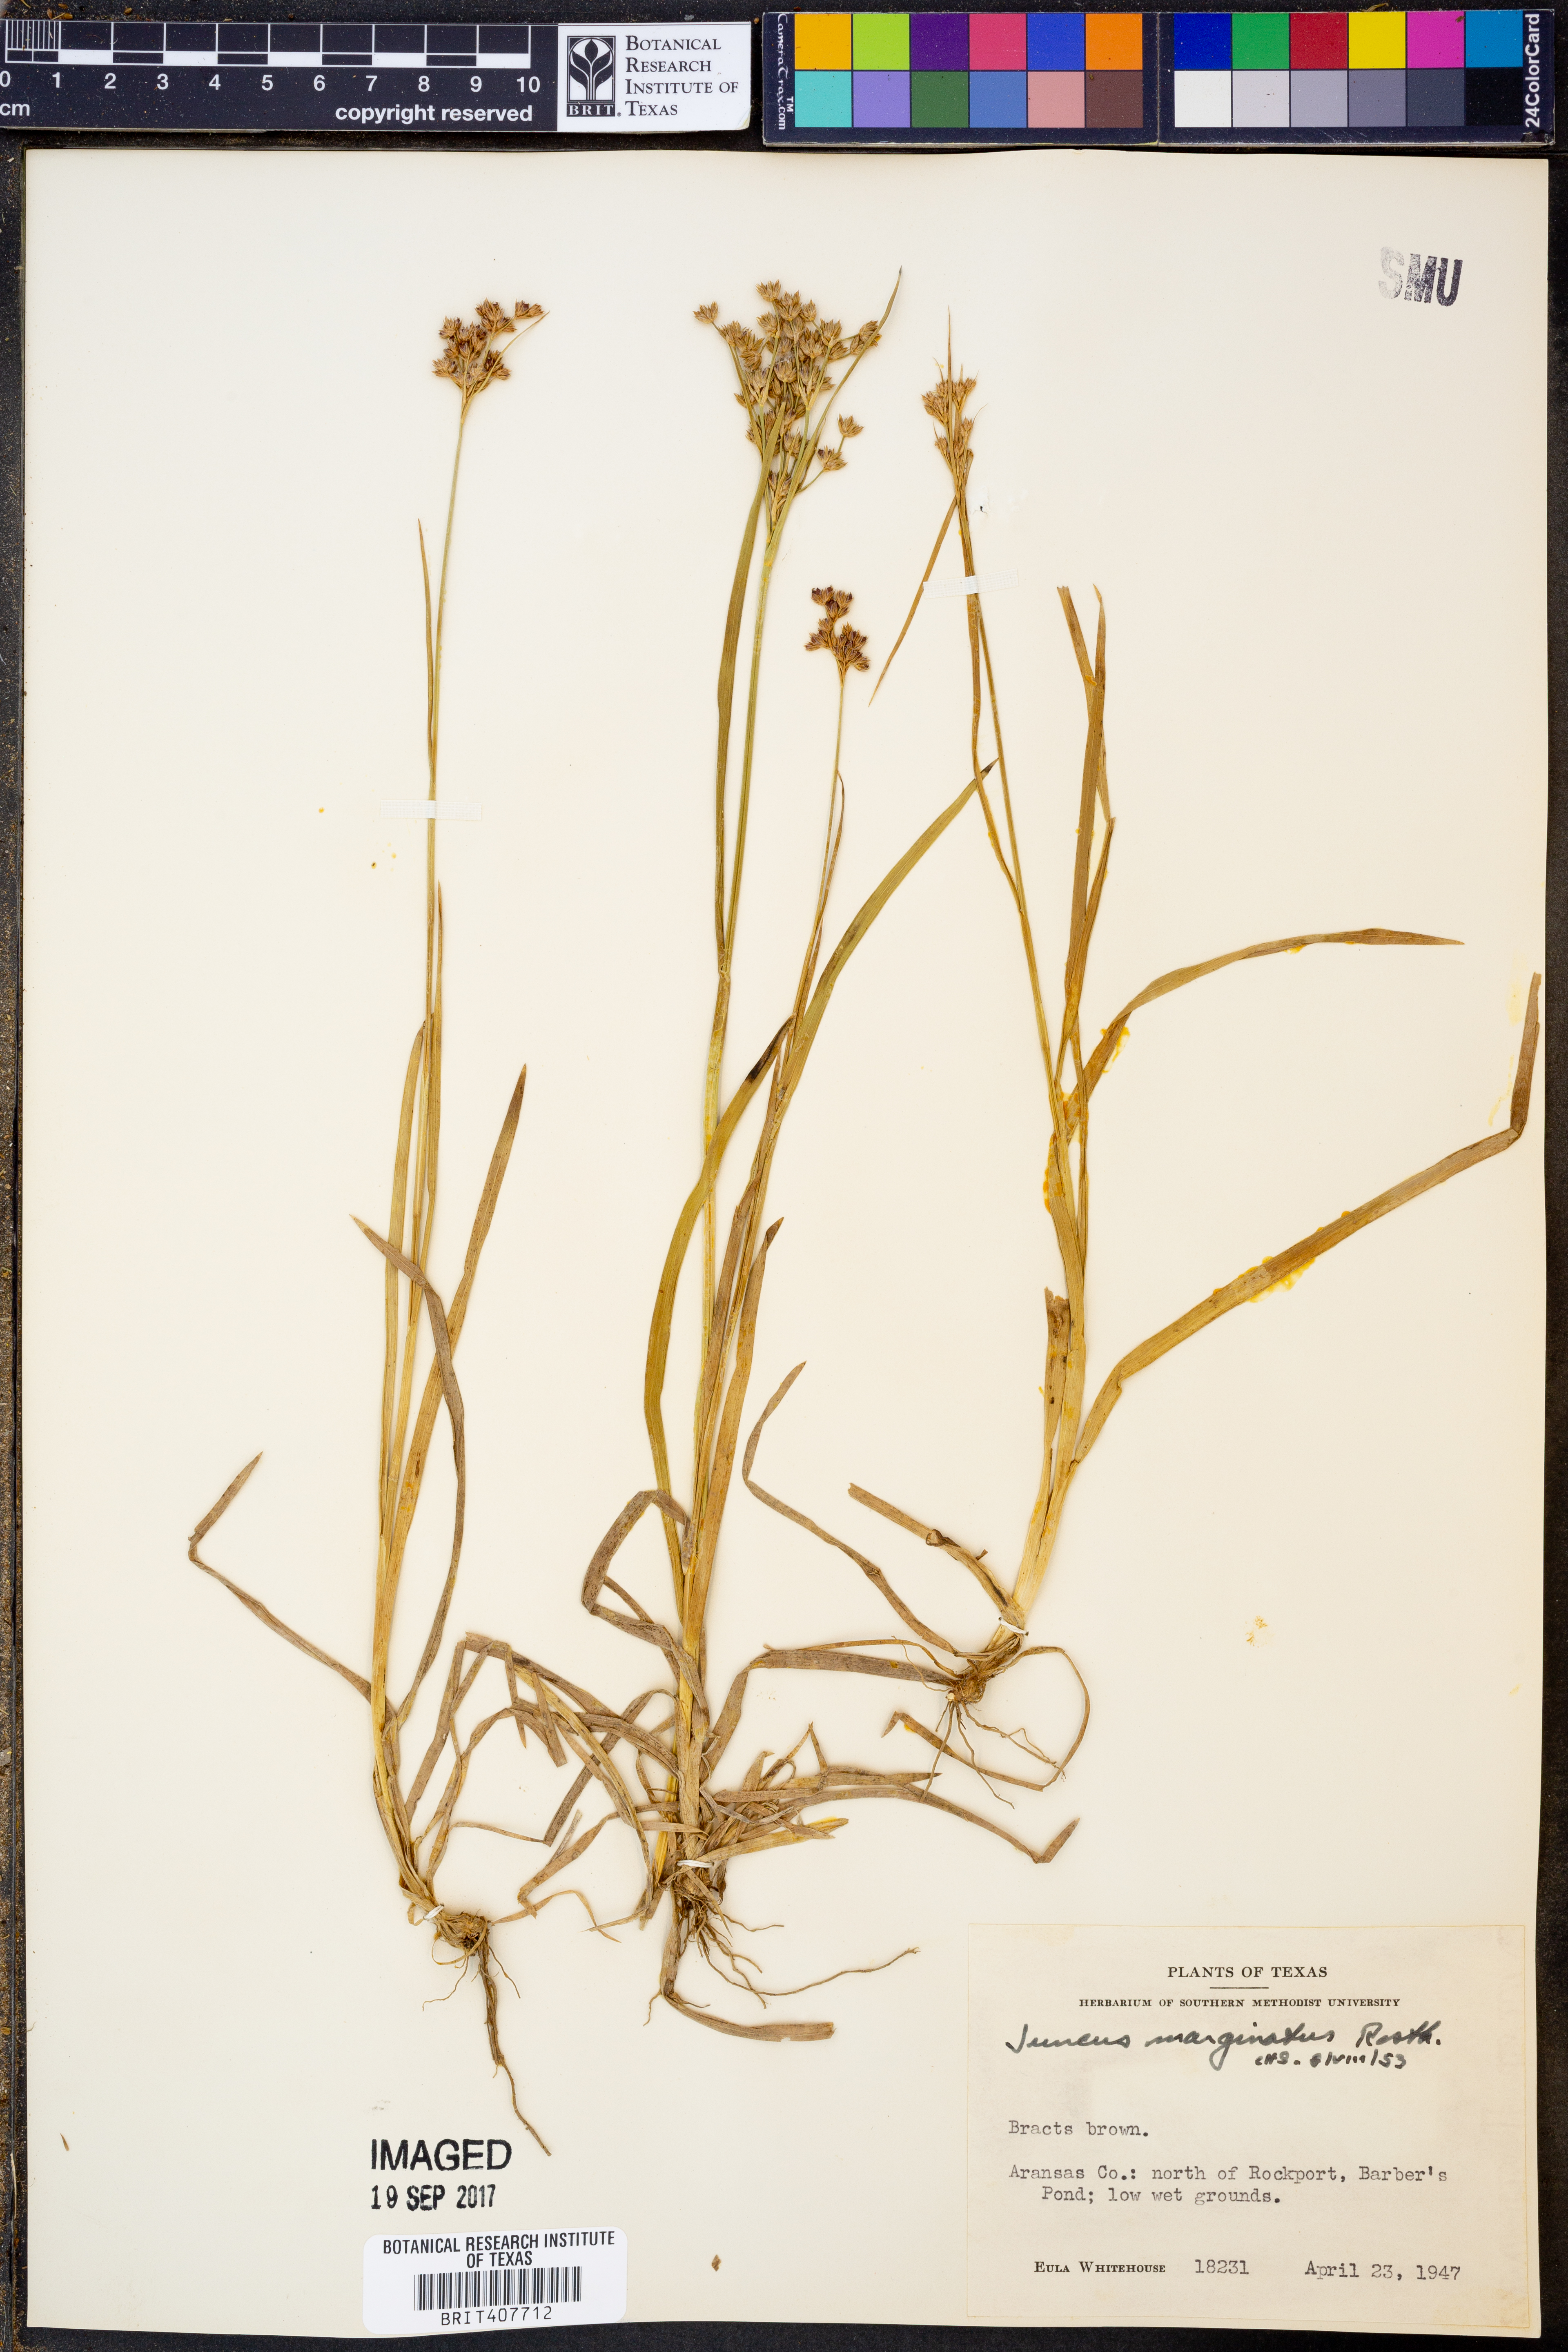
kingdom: Plantae
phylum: Tracheophyta
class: Liliopsida
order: Poales
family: Juncaceae
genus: Juncus
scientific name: Juncus marginatus
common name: Grass-leaf rush
